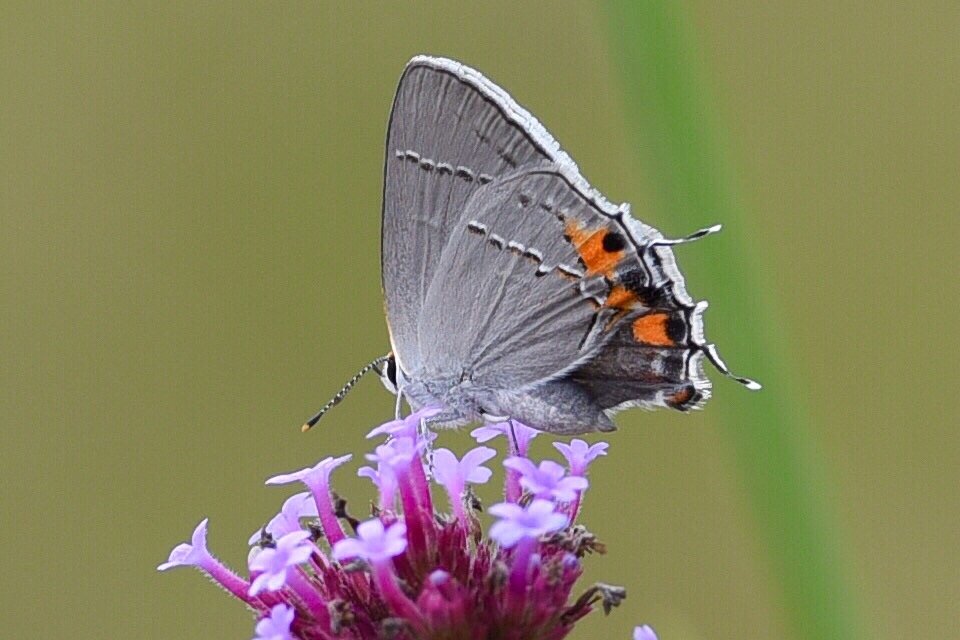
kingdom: Animalia
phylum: Arthropoda
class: Insecta
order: Lepidoptera
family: Lycaenidae
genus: Strymon
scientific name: Strymon melinus
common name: Gray Hairstreak
